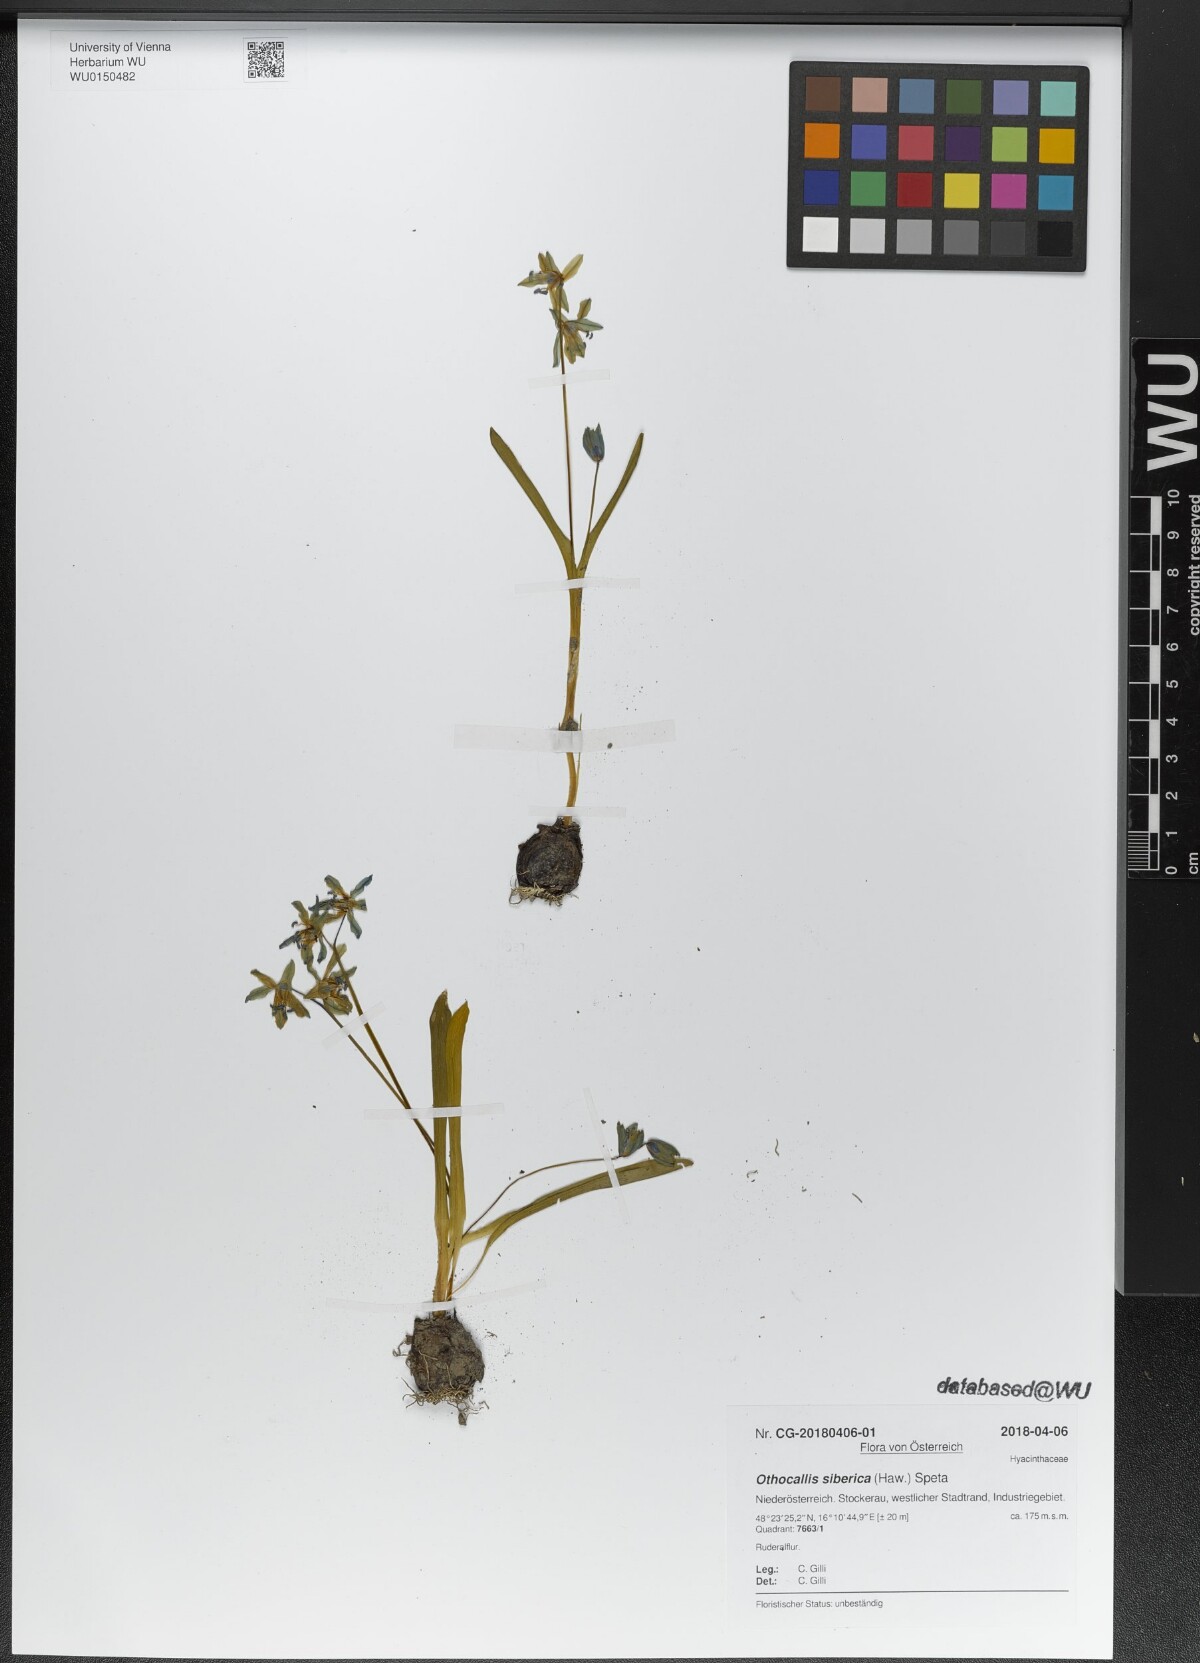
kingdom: Plantae
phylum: Tracheophyta
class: Liliopsida
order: Asparagales
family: Asparagaceae
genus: Scilla
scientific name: Scilla siberica
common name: Siberian squill
